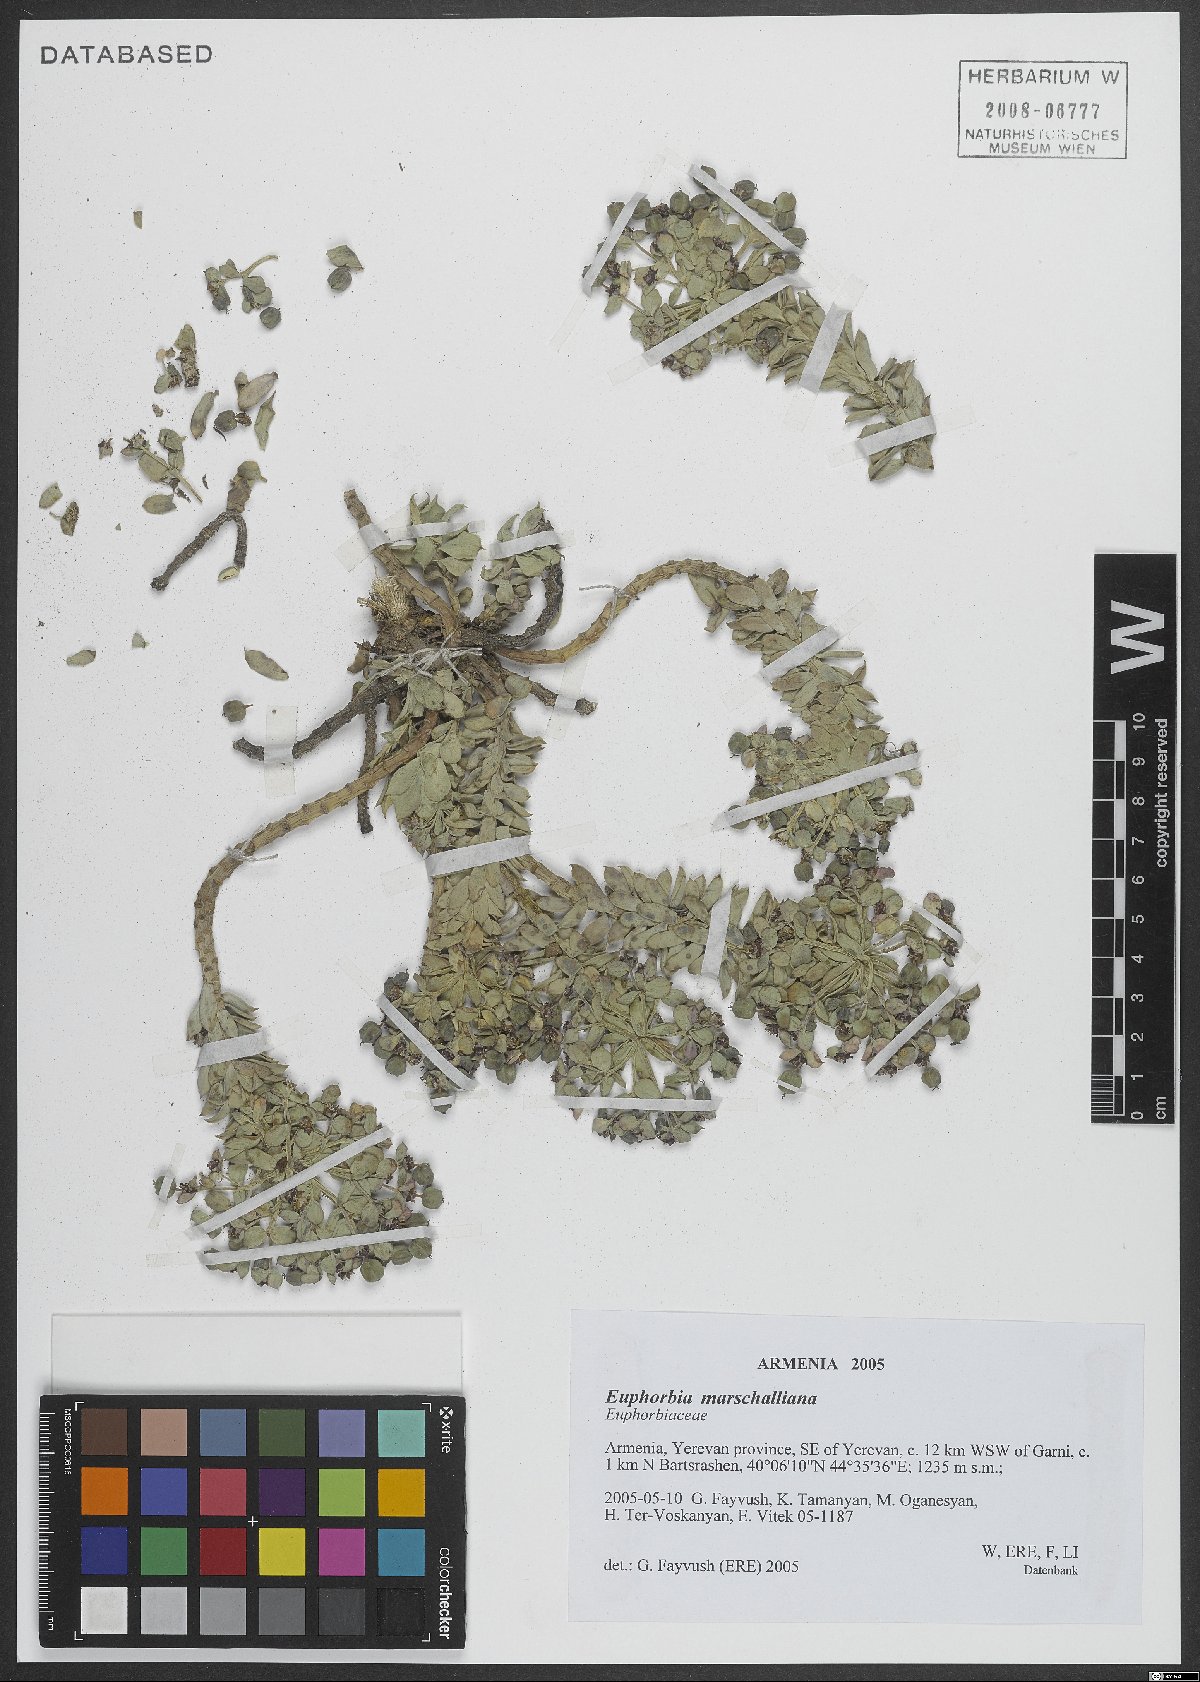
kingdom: Plantae
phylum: Tracheophyta
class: Magnoliopsida
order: Malpighiales
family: Euphorbiaceae
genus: Euphorbia
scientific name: Euphorbia marschalliana
